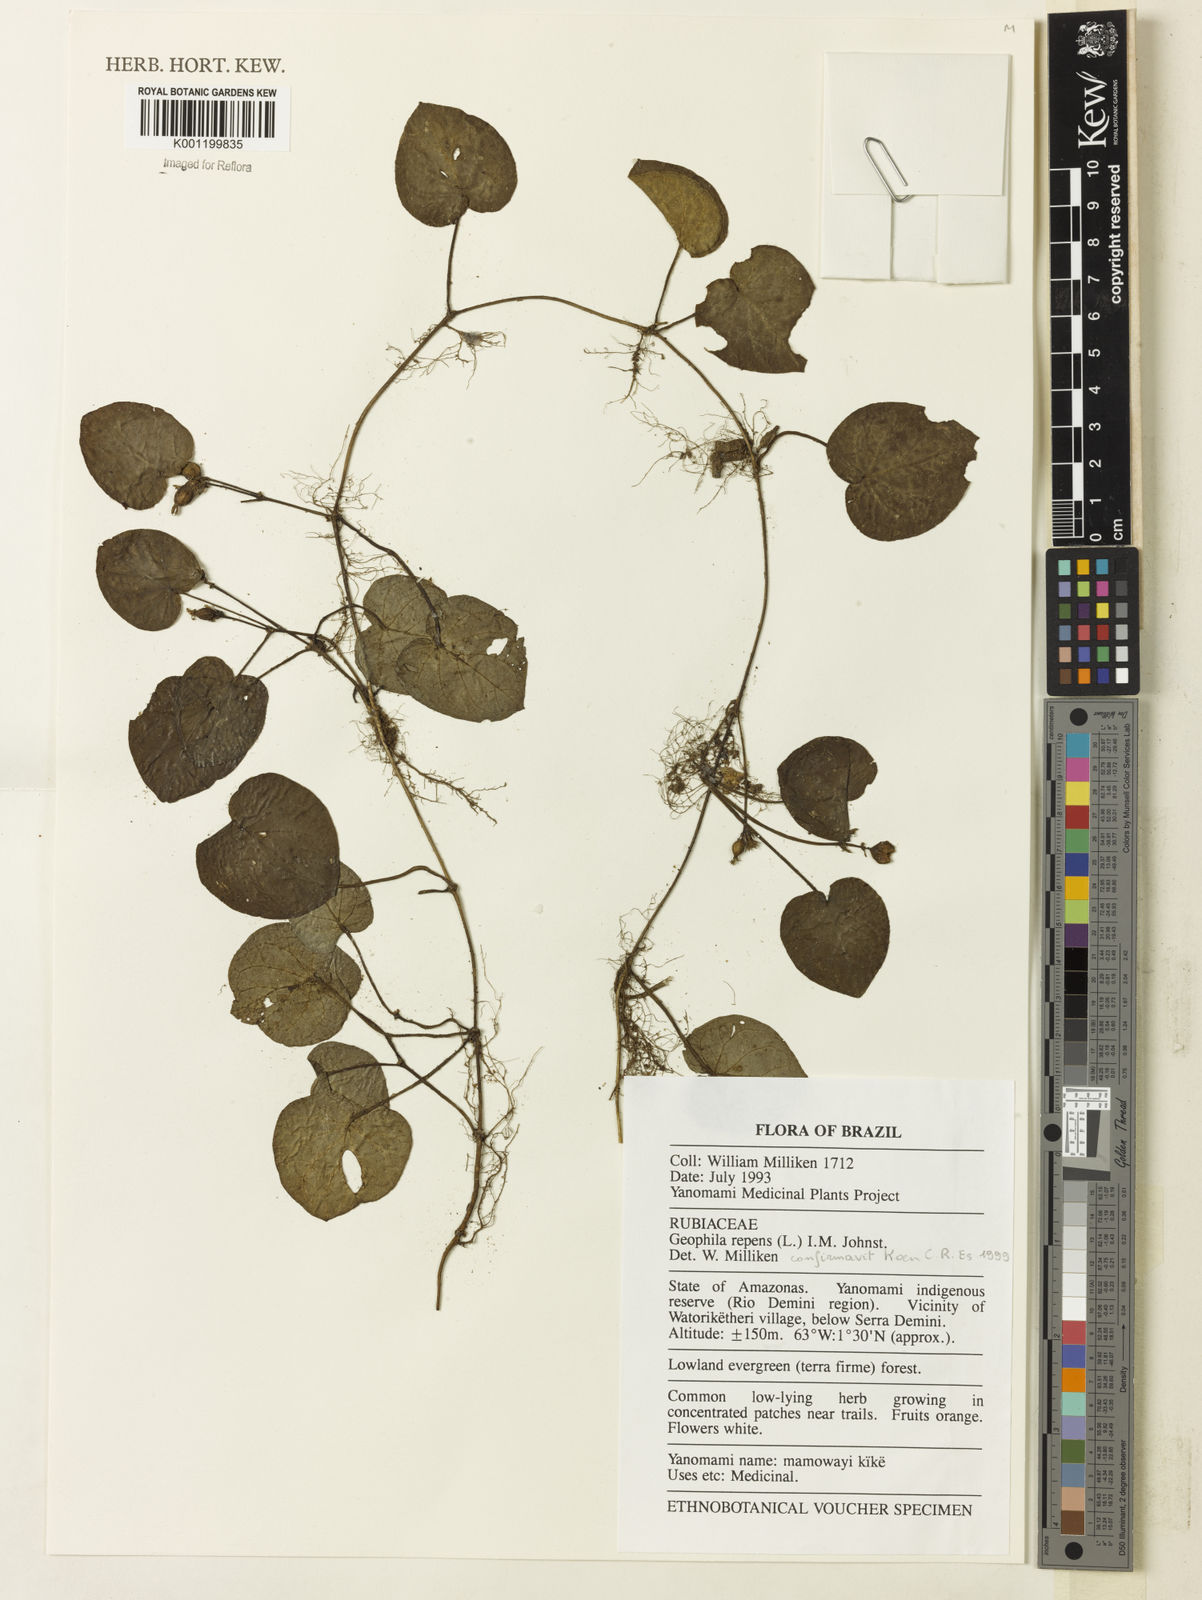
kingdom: Plantae
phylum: Tracheophyta
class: Magnoliopsida
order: Gentianales
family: Rubiaceae
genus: Geophila
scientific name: Geophila repens
